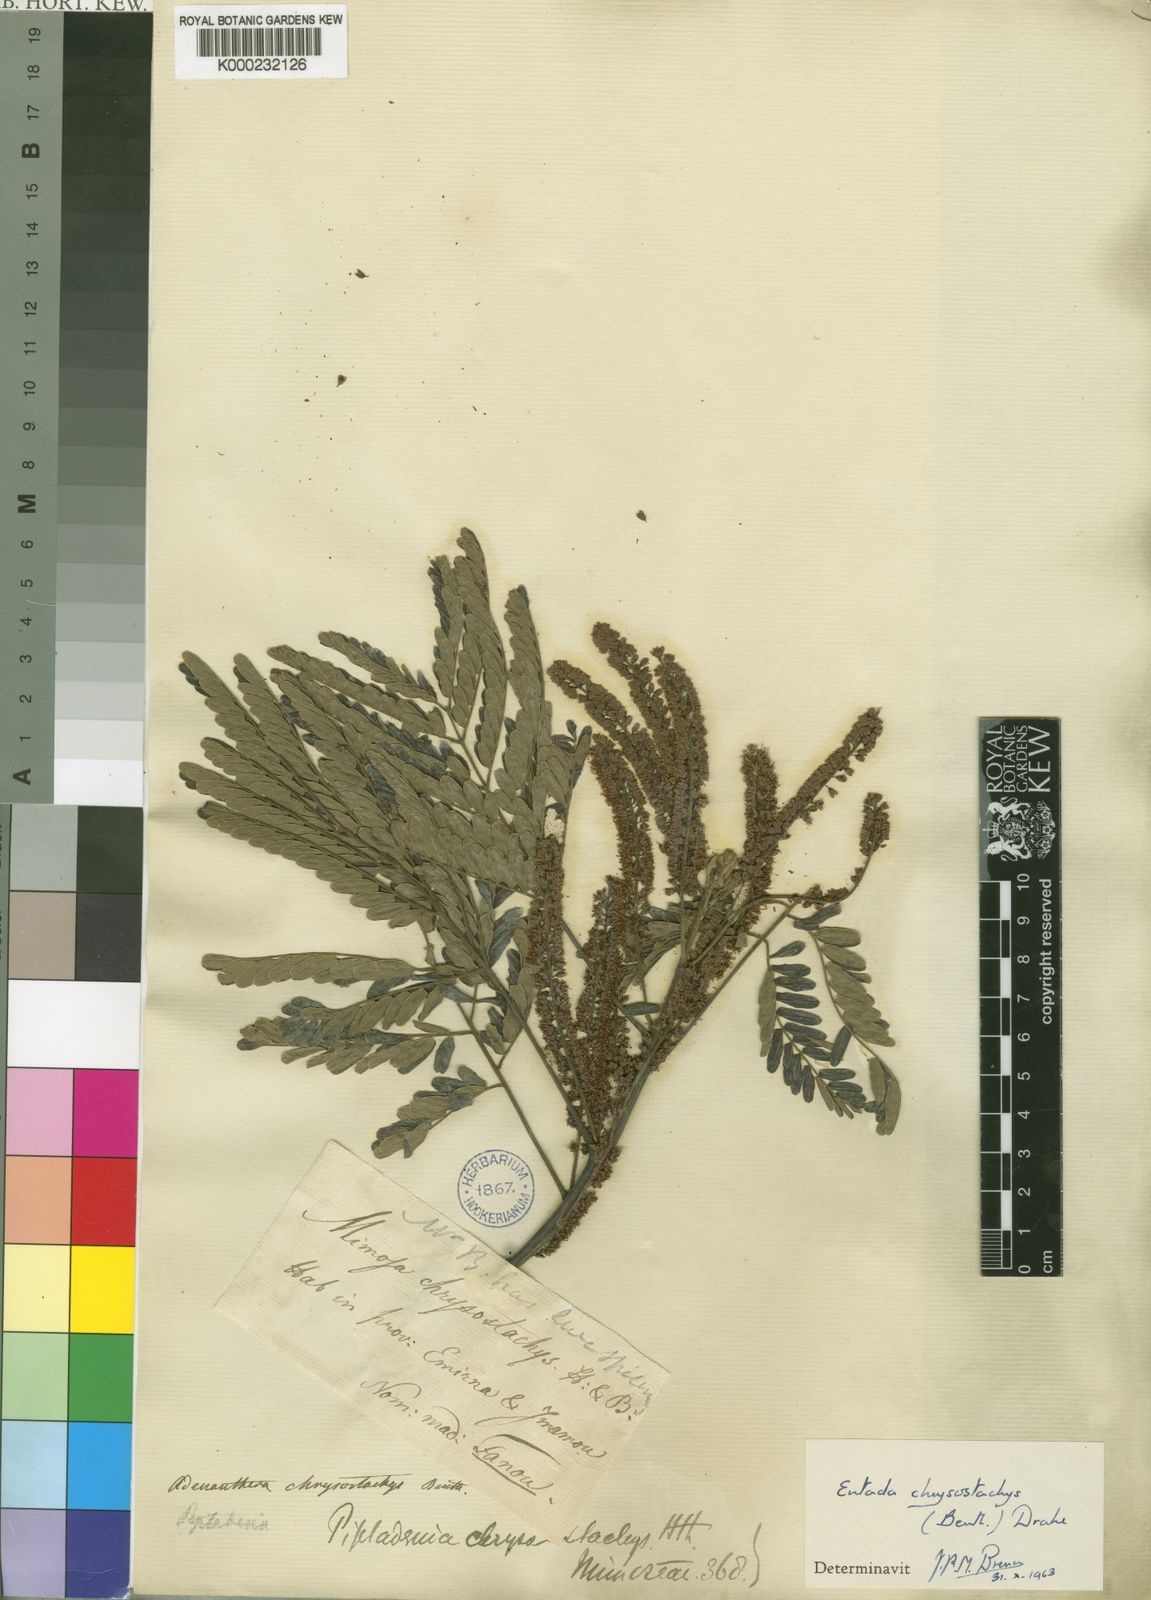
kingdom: Plantae
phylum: Tracheophyta
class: Magnoliopsida
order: Fabales
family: Fabaceae
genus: Entada
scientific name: Entada chrysostachys
